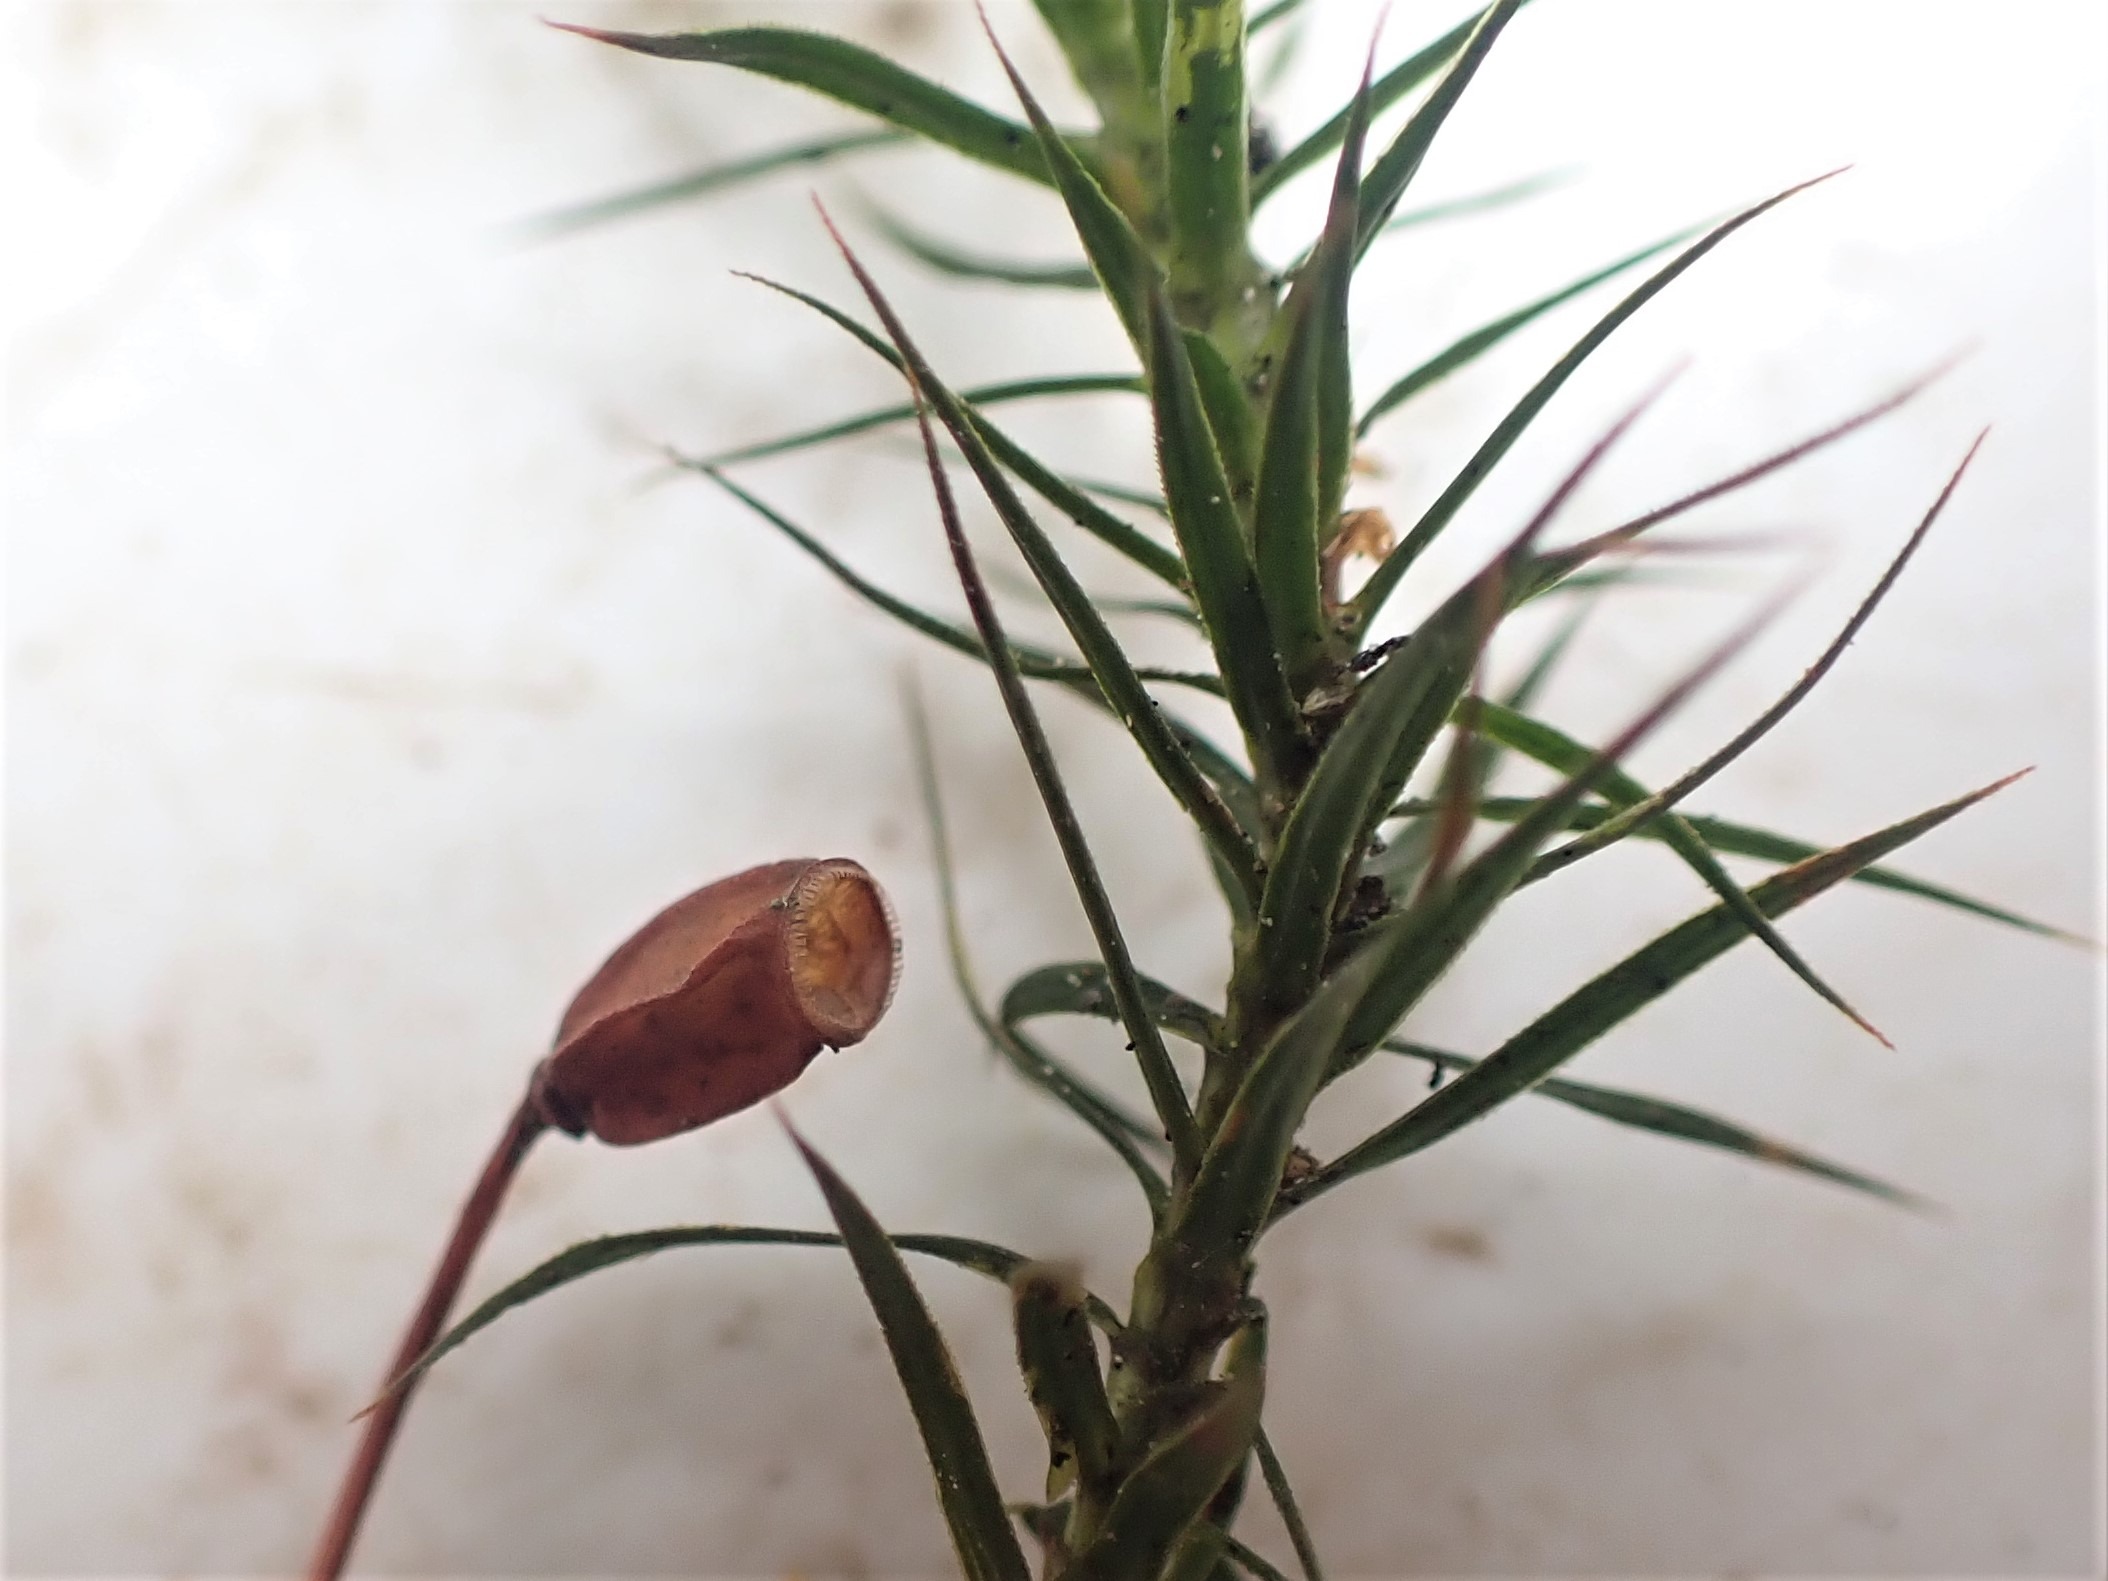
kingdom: Plantae
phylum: Bryophyta
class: Polytrichopsida
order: Polytrichales
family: Polytrichaceae
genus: Polytrichum
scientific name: Polytrichum formosum
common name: Skov-jomfruhår
